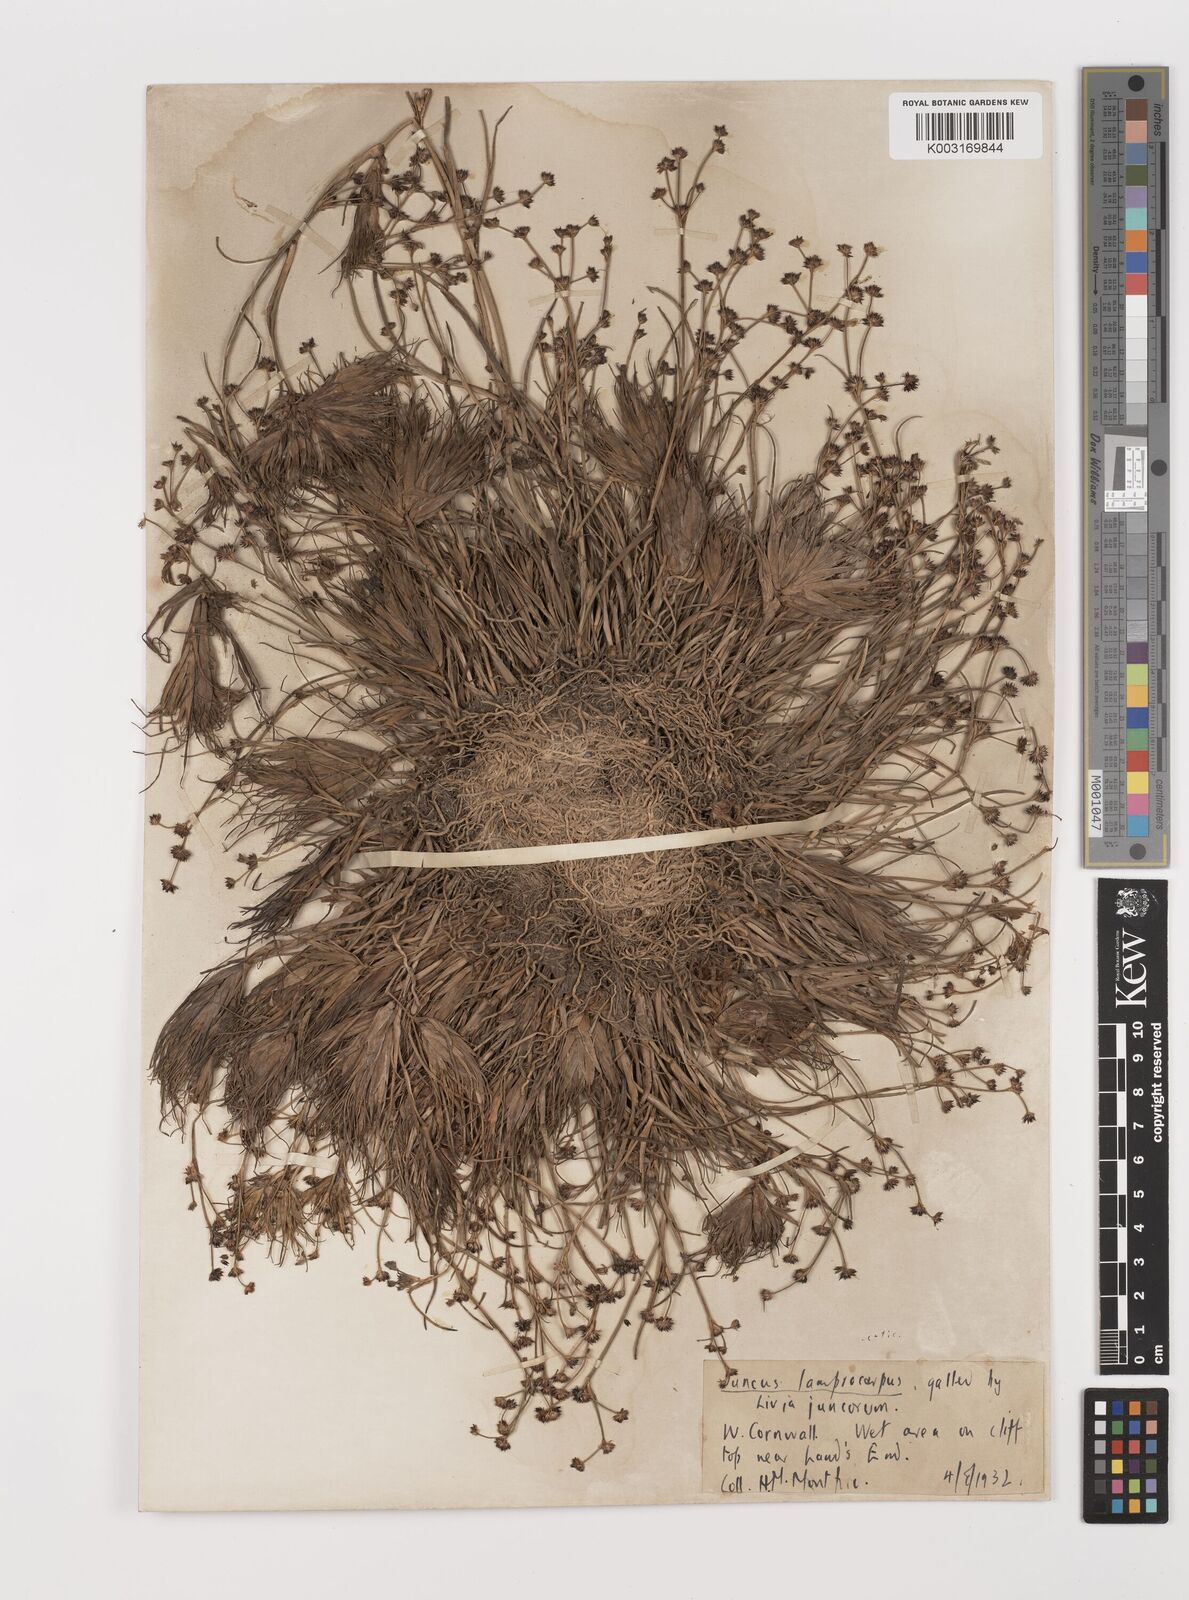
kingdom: Plantae
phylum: Tracheophyta
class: Liliopsida
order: Poales
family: Juncaceae
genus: Juncus
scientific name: Juncus articulatus
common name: Jointed rush
